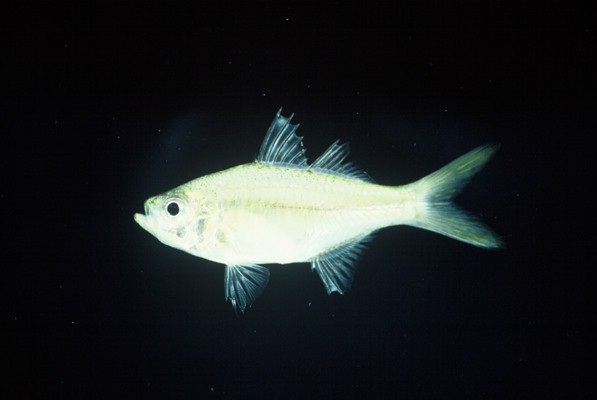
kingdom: Animalia
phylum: Chordata
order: Perciformes
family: Ambassidae
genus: Ambassis
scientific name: Ambassis gymnocephalus
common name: Bald glassy
